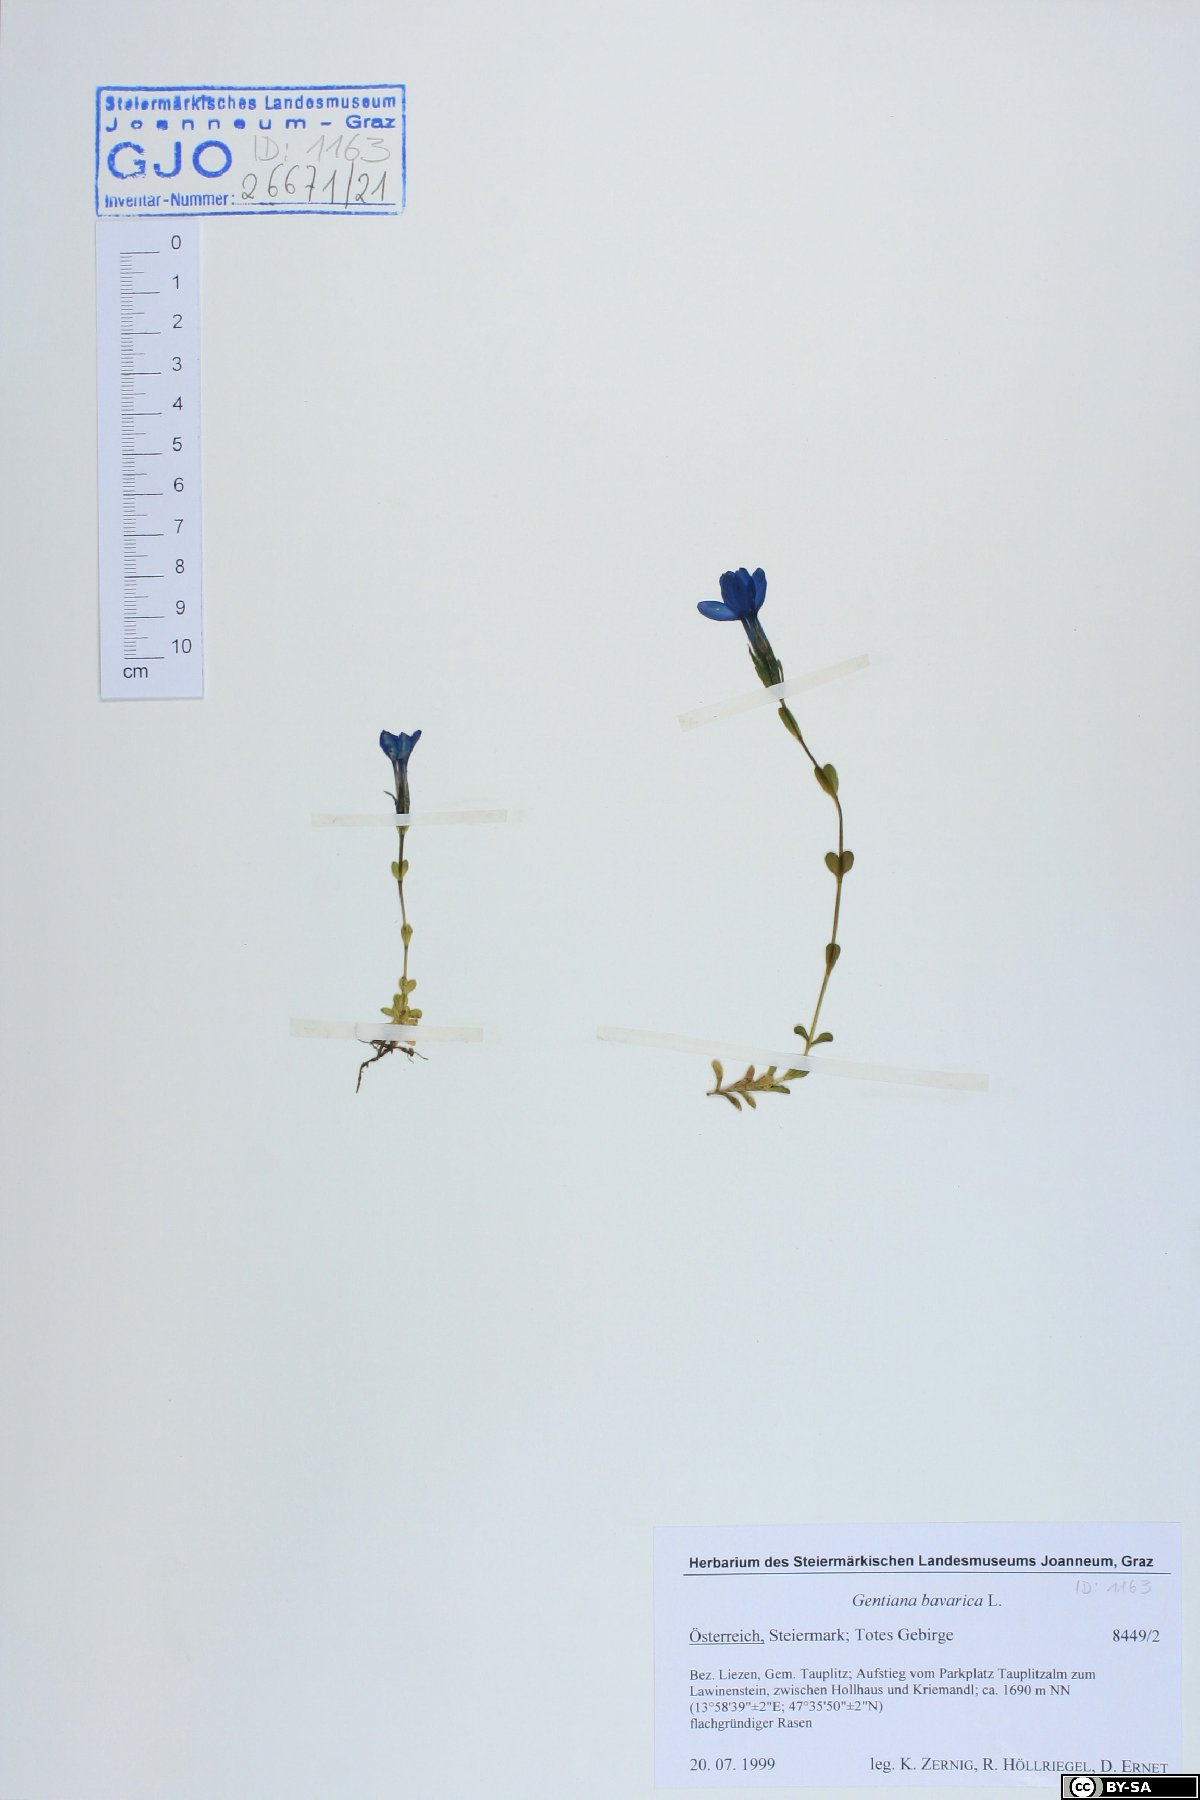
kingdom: Plantae
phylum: Tracheophyta
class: Magnoliopsida
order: Gentianales
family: Gentianaceae
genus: Gentiana
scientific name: Gentiana bavarica
